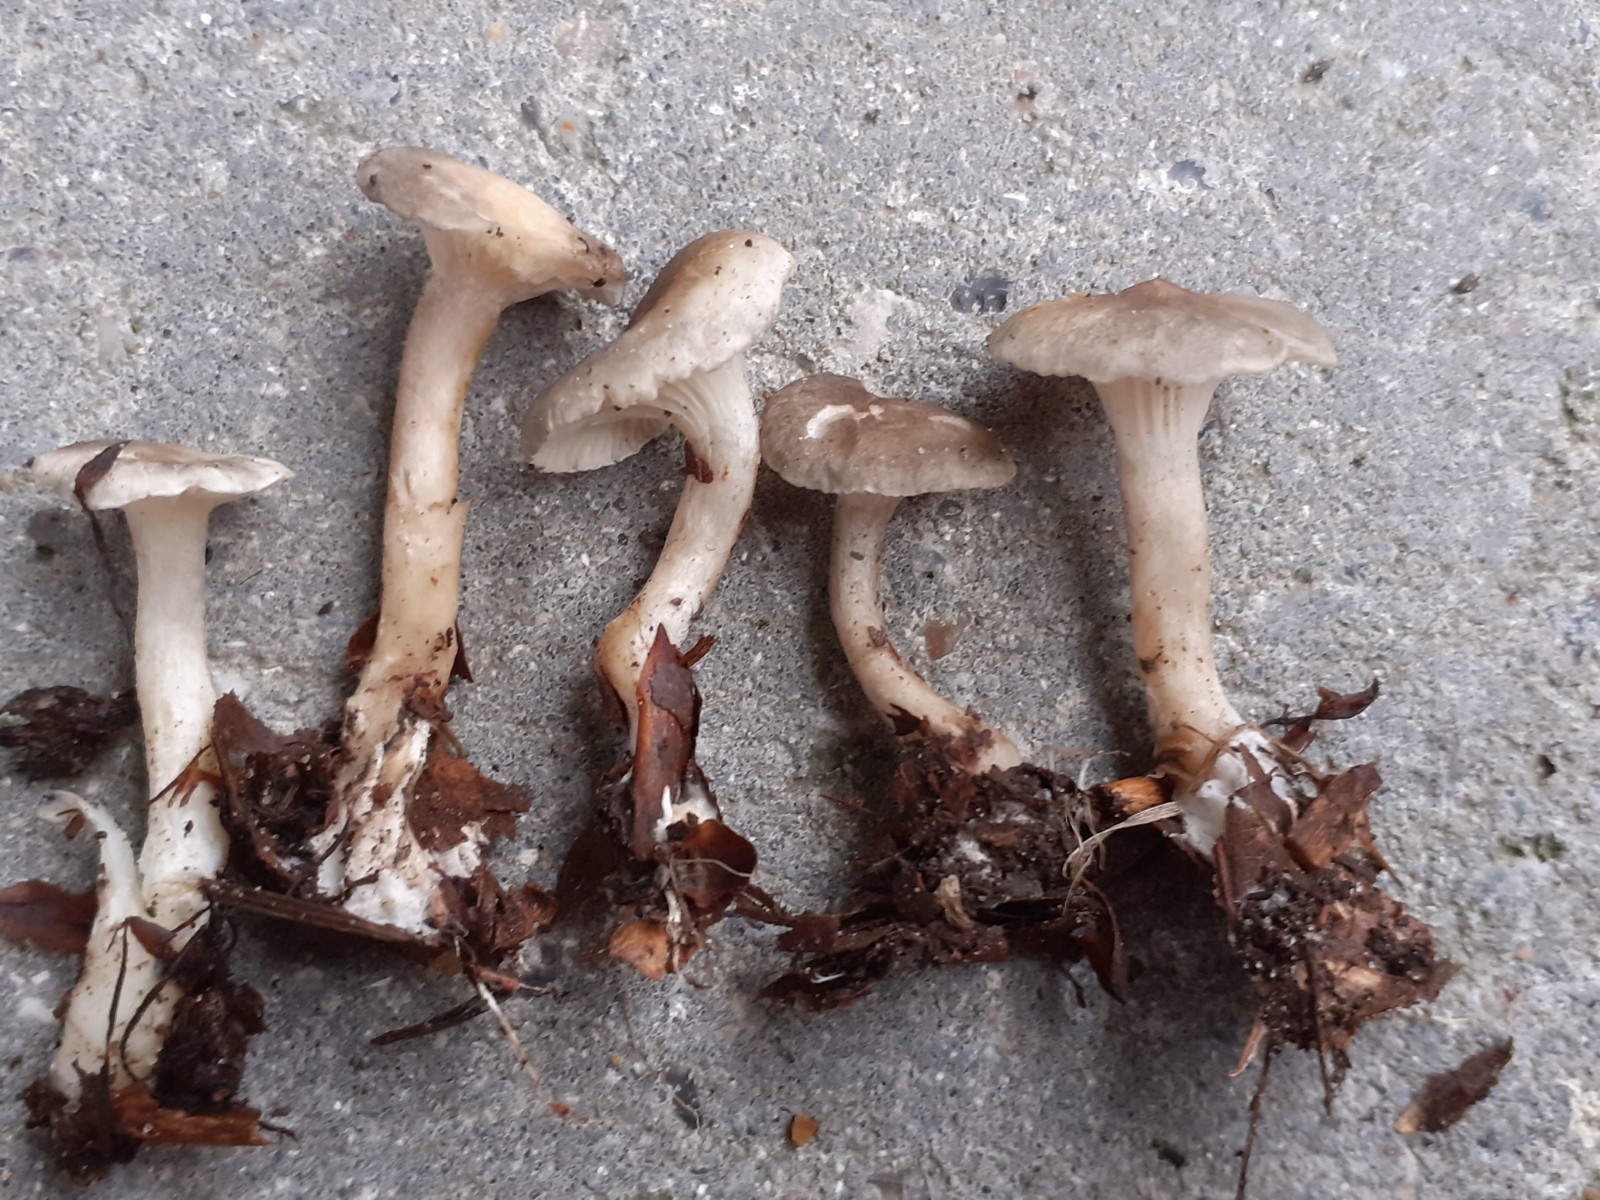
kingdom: Fungi
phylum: Basidiomycota
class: Agaricomycetes
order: Agaricales
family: Hygrophoraceae
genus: Spodocybe
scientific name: Spodocybe trulliformis
